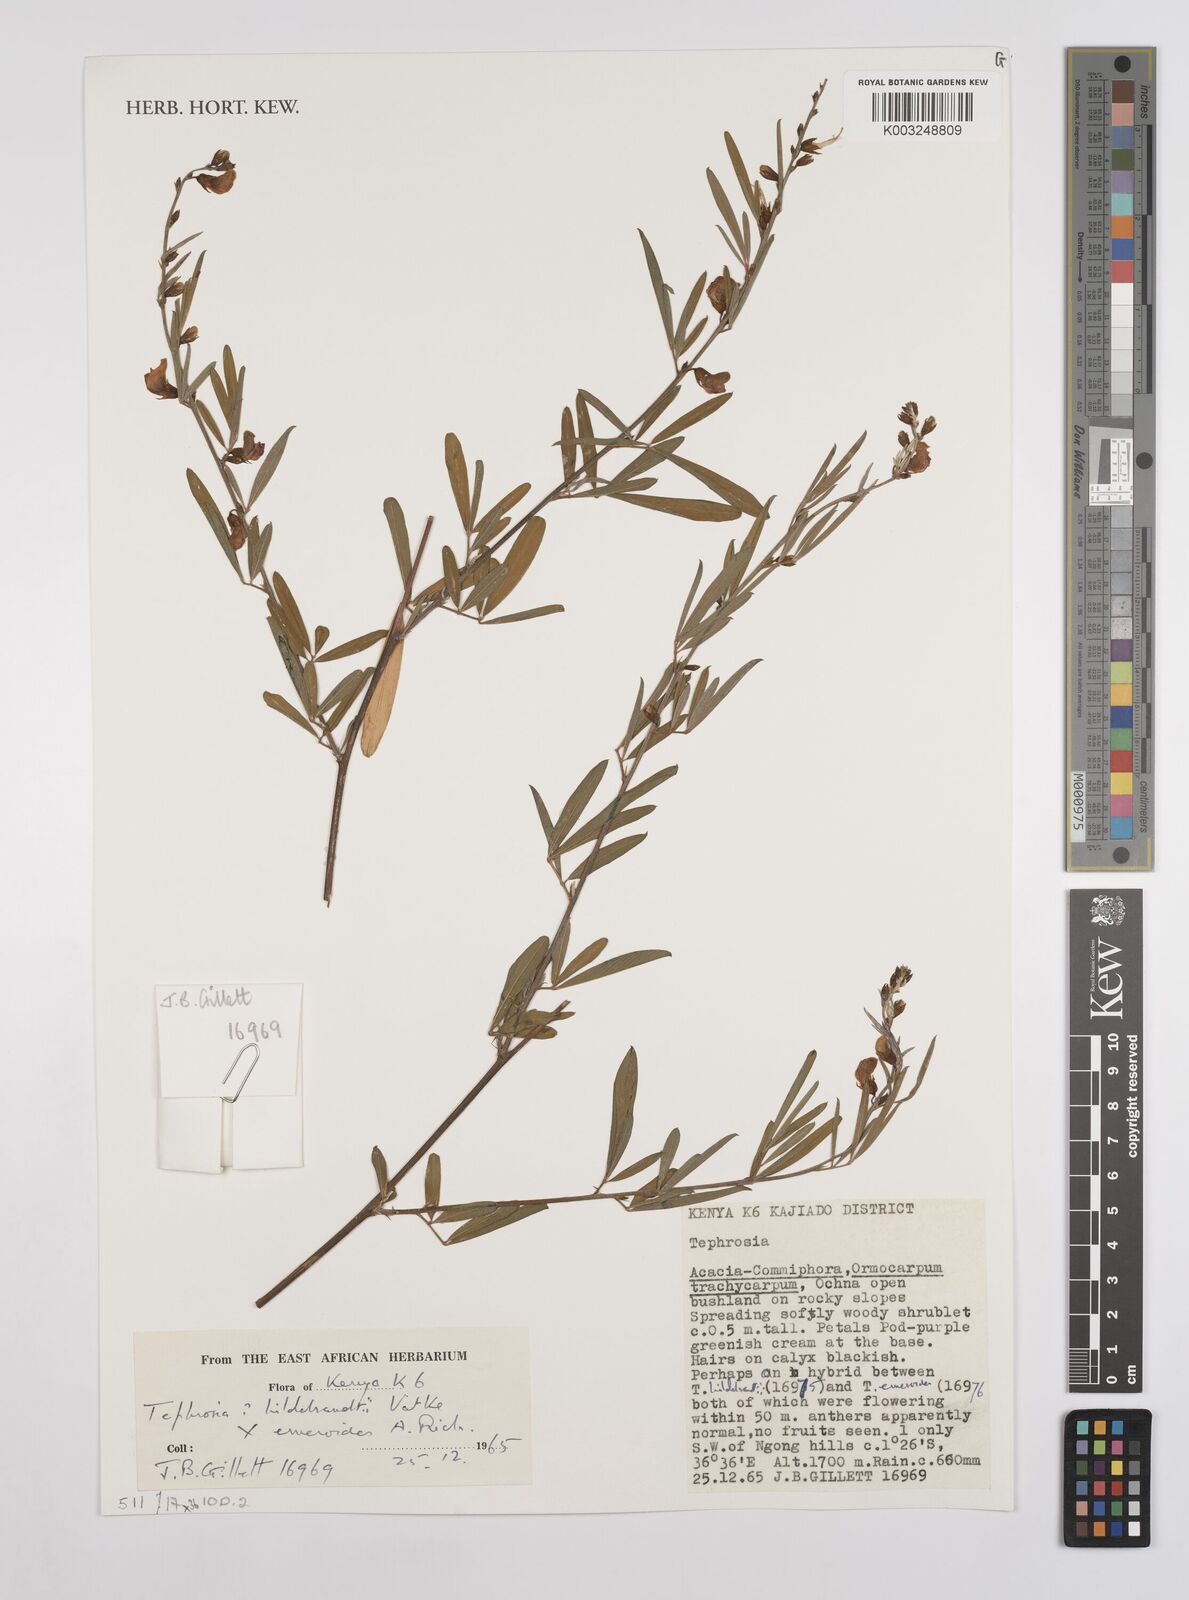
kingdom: Plantae
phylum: Tracheophyta
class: Magnoliopsida
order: Fabales
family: Fabaceae
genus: Tephrosia
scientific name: Tephrosia hildebrandtii
